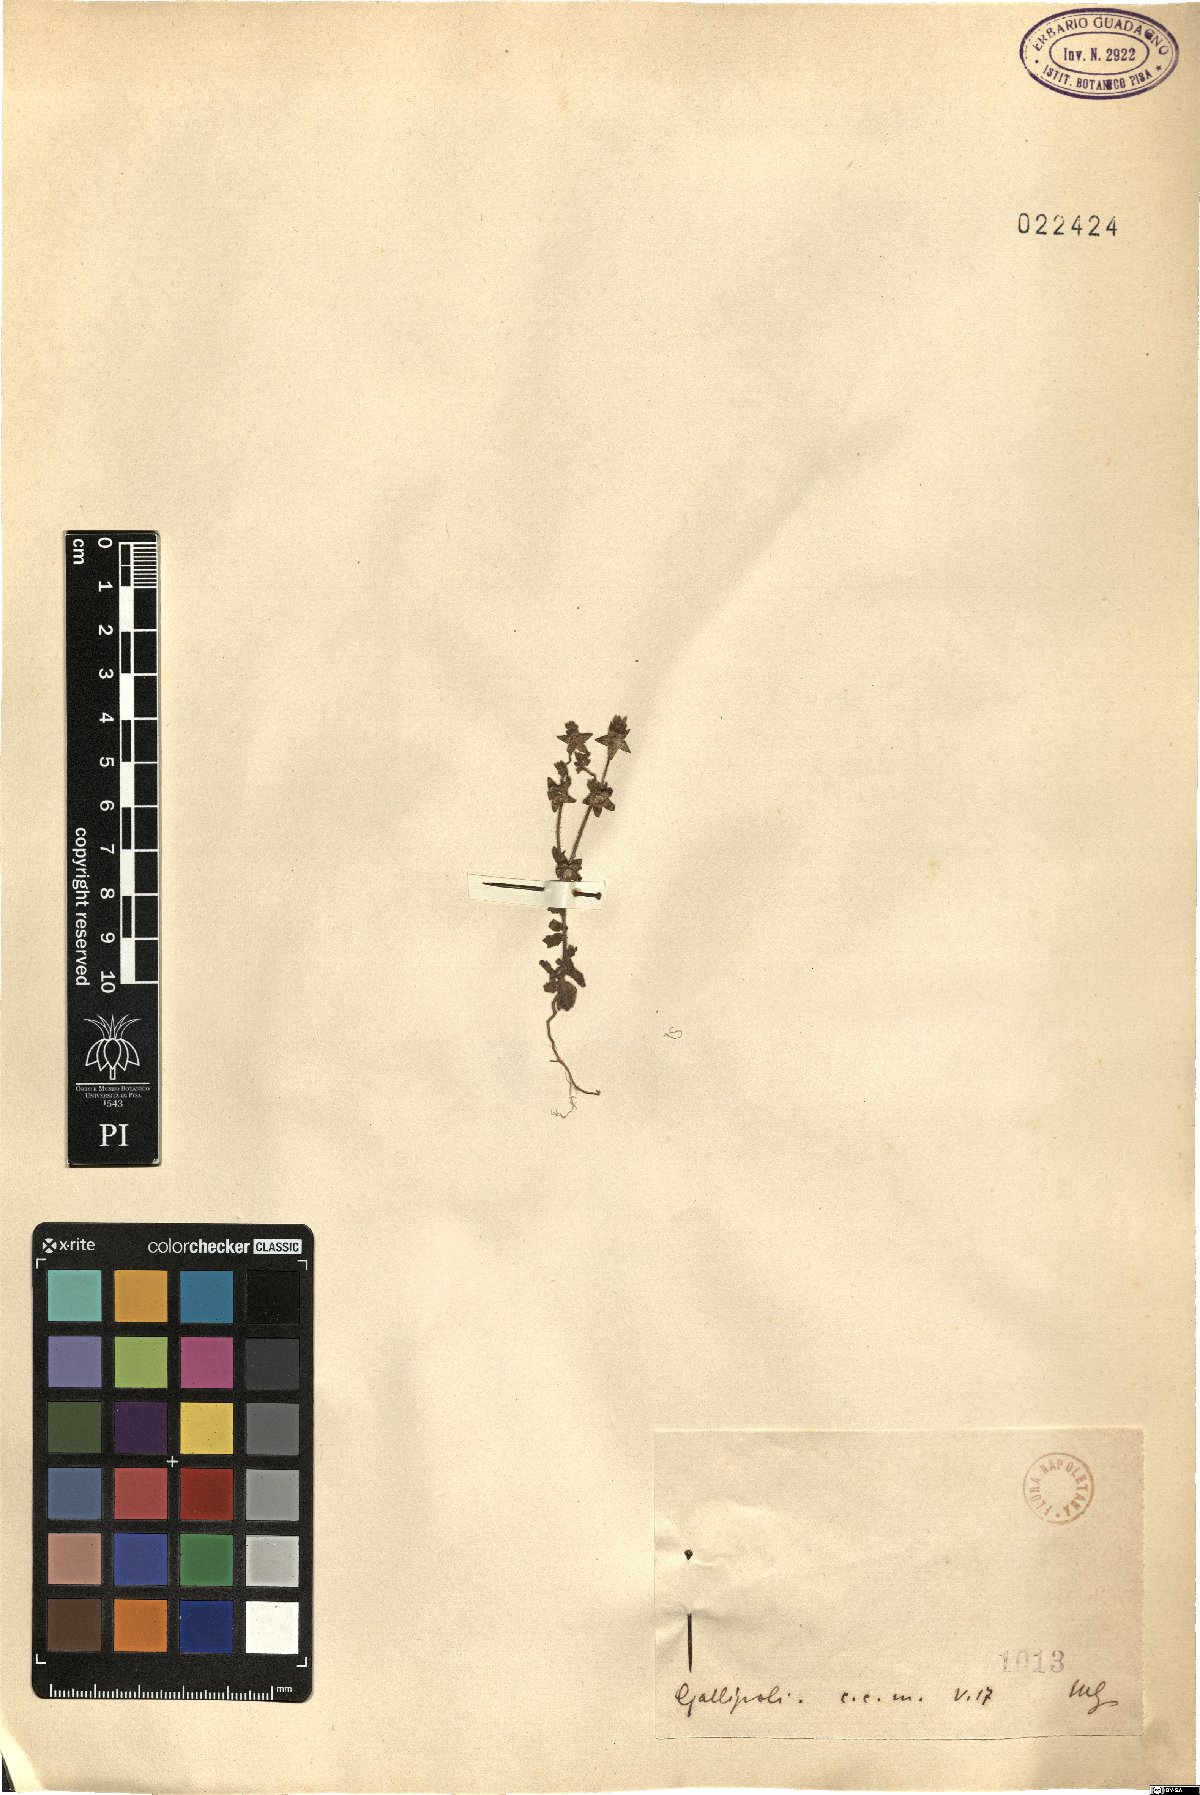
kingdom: Plantae
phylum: Tracheophyta
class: Magnoliopsida
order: Asterales
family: Campanulaceae
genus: Campanula
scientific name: Campanula
